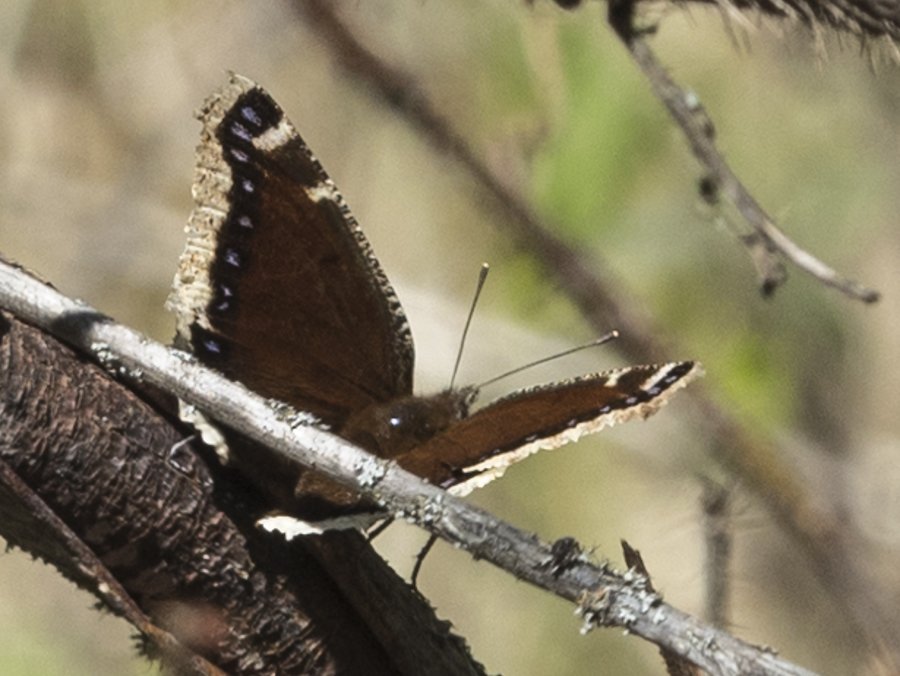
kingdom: Animalia
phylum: Arthropoda
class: Insecta
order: Lepidoptera
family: Nymphalidae
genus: Nymphalis
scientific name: Nymphalis antiopa
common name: Mourning Cloak
